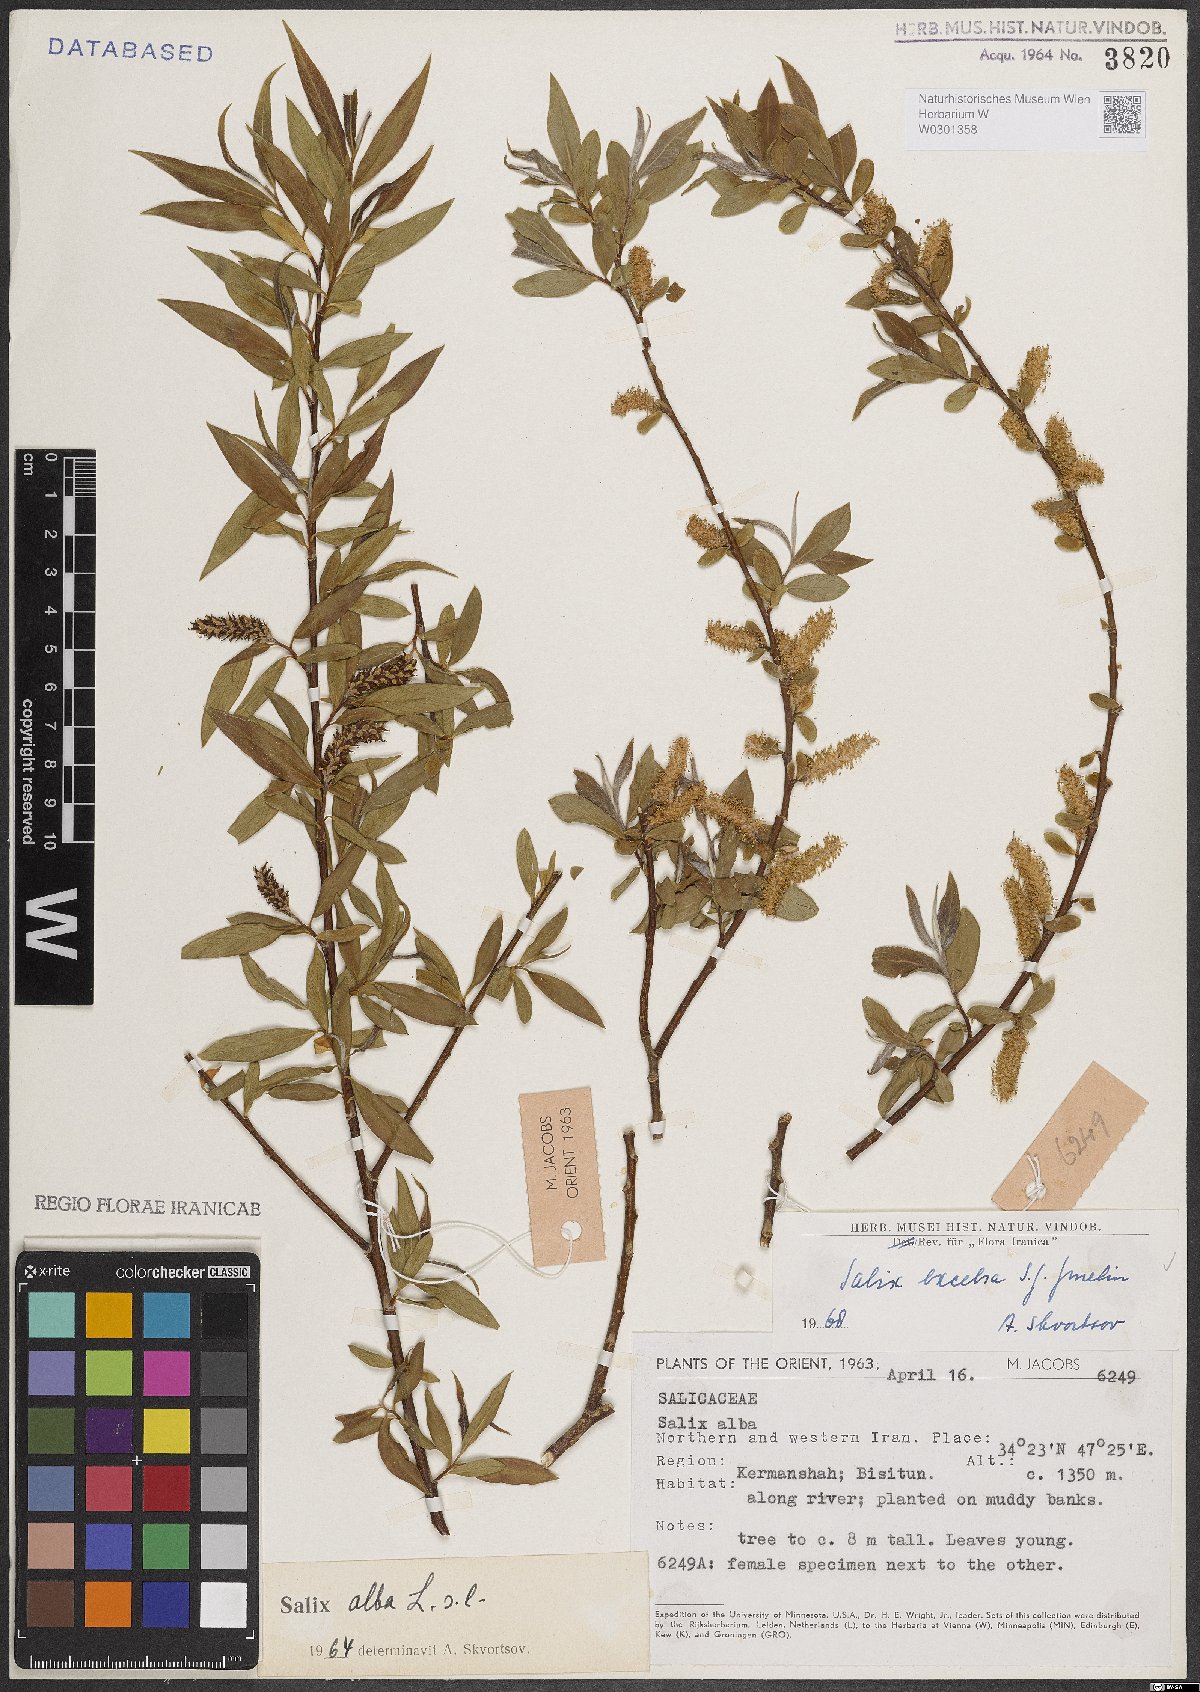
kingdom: Plantae
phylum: Tracheophyta
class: Magnoliopsida
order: Malpighiales
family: Salicaceae
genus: Salix
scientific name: Salix excelsa
